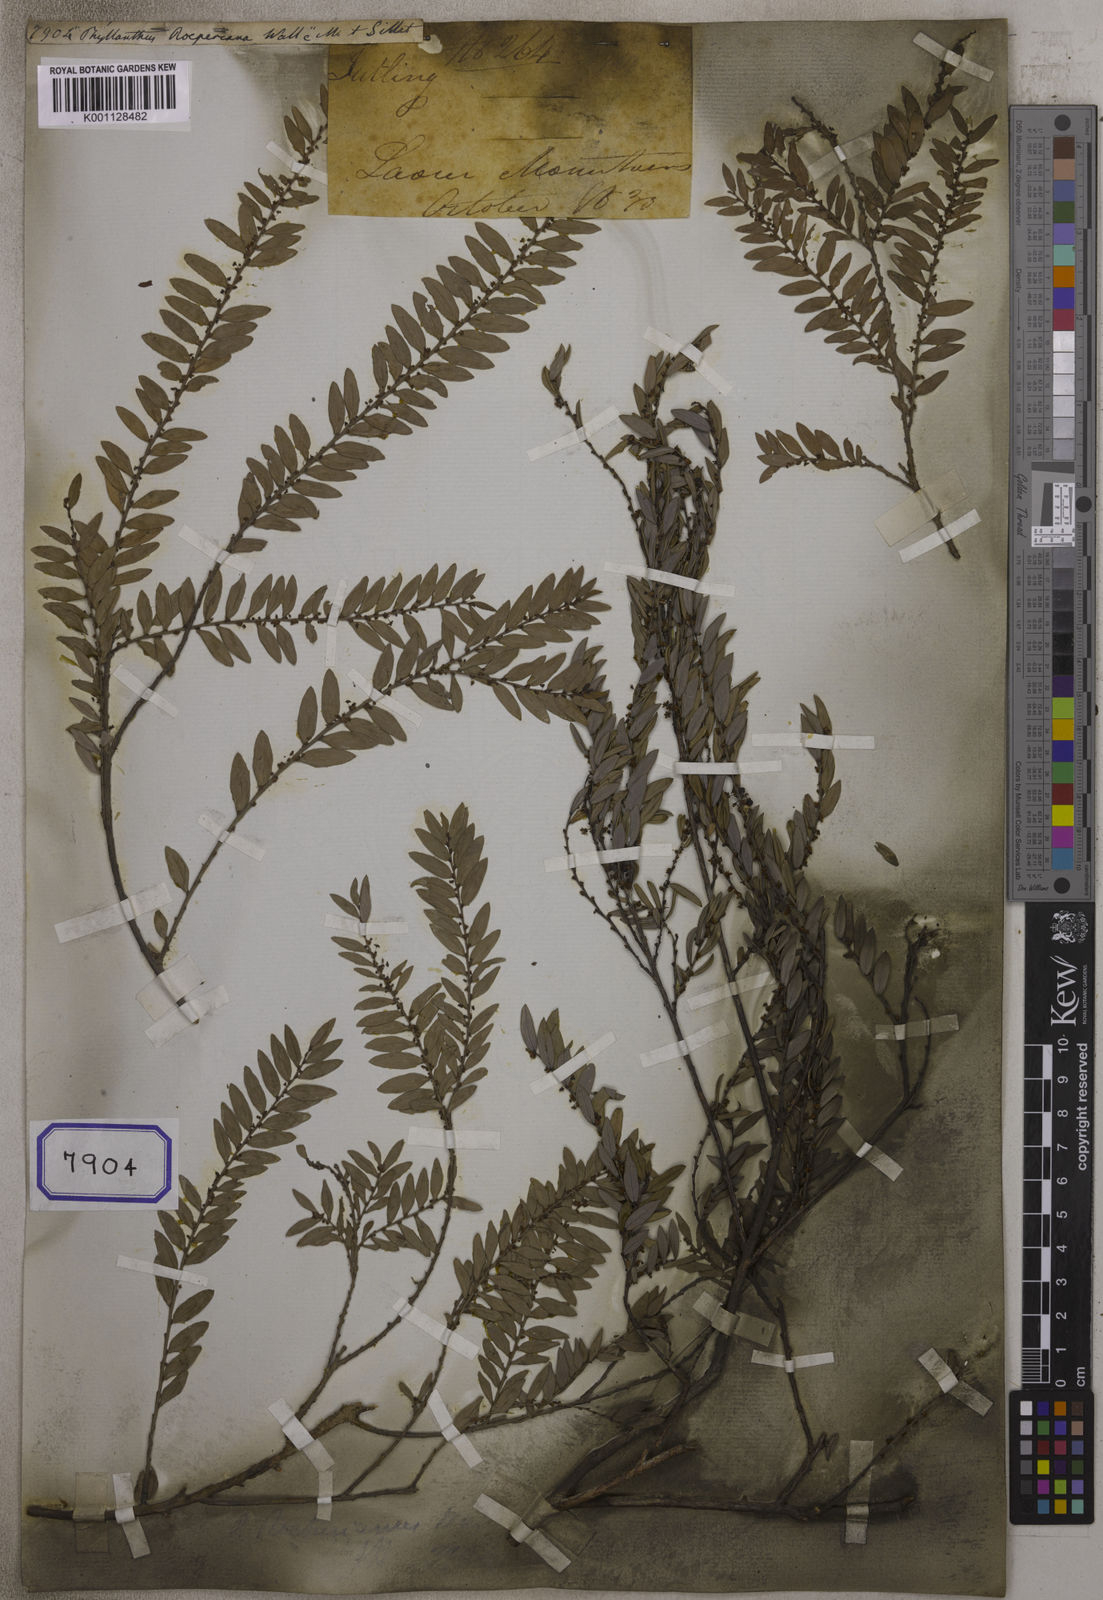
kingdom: Plantae
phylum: Tracheophyta
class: Magnoliopsida
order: Malpighiales
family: Euphorbiaceae
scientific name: Euphorbiaceae
